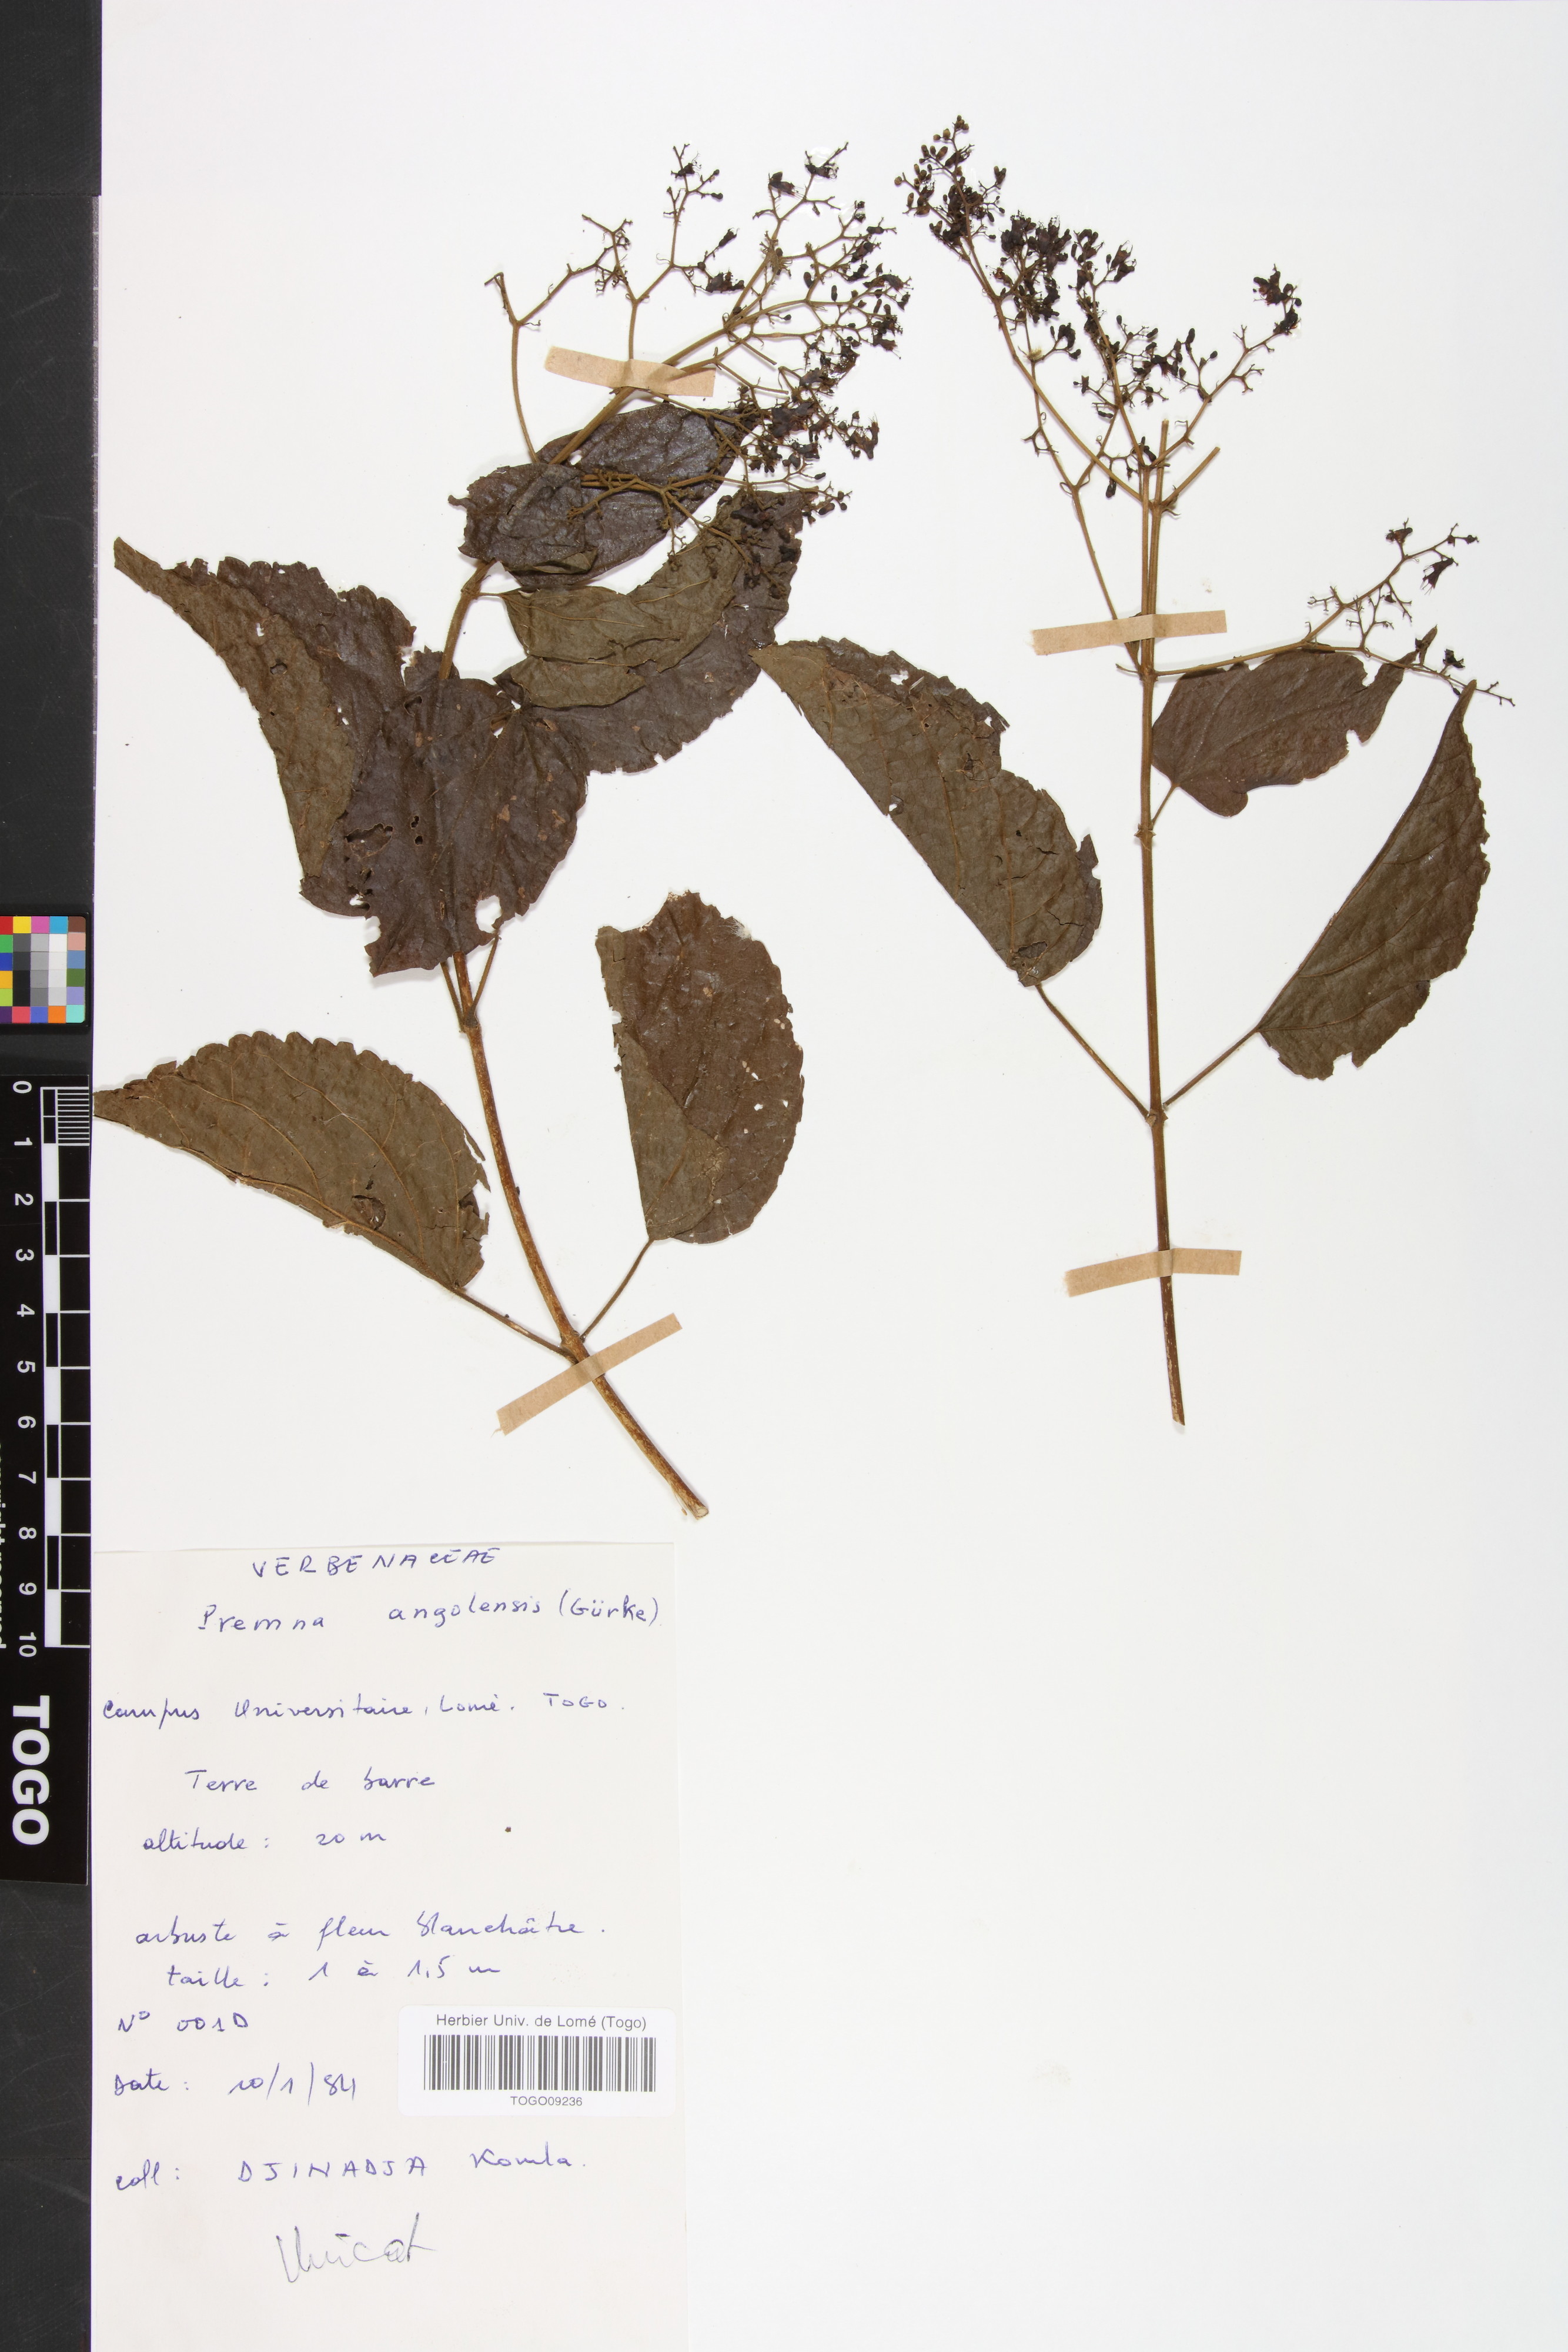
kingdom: Plantae
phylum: Tracheophyta
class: Magnoliopsida
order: Lamiales
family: Lamiaceae
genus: Premna
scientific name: Premna angolensis
